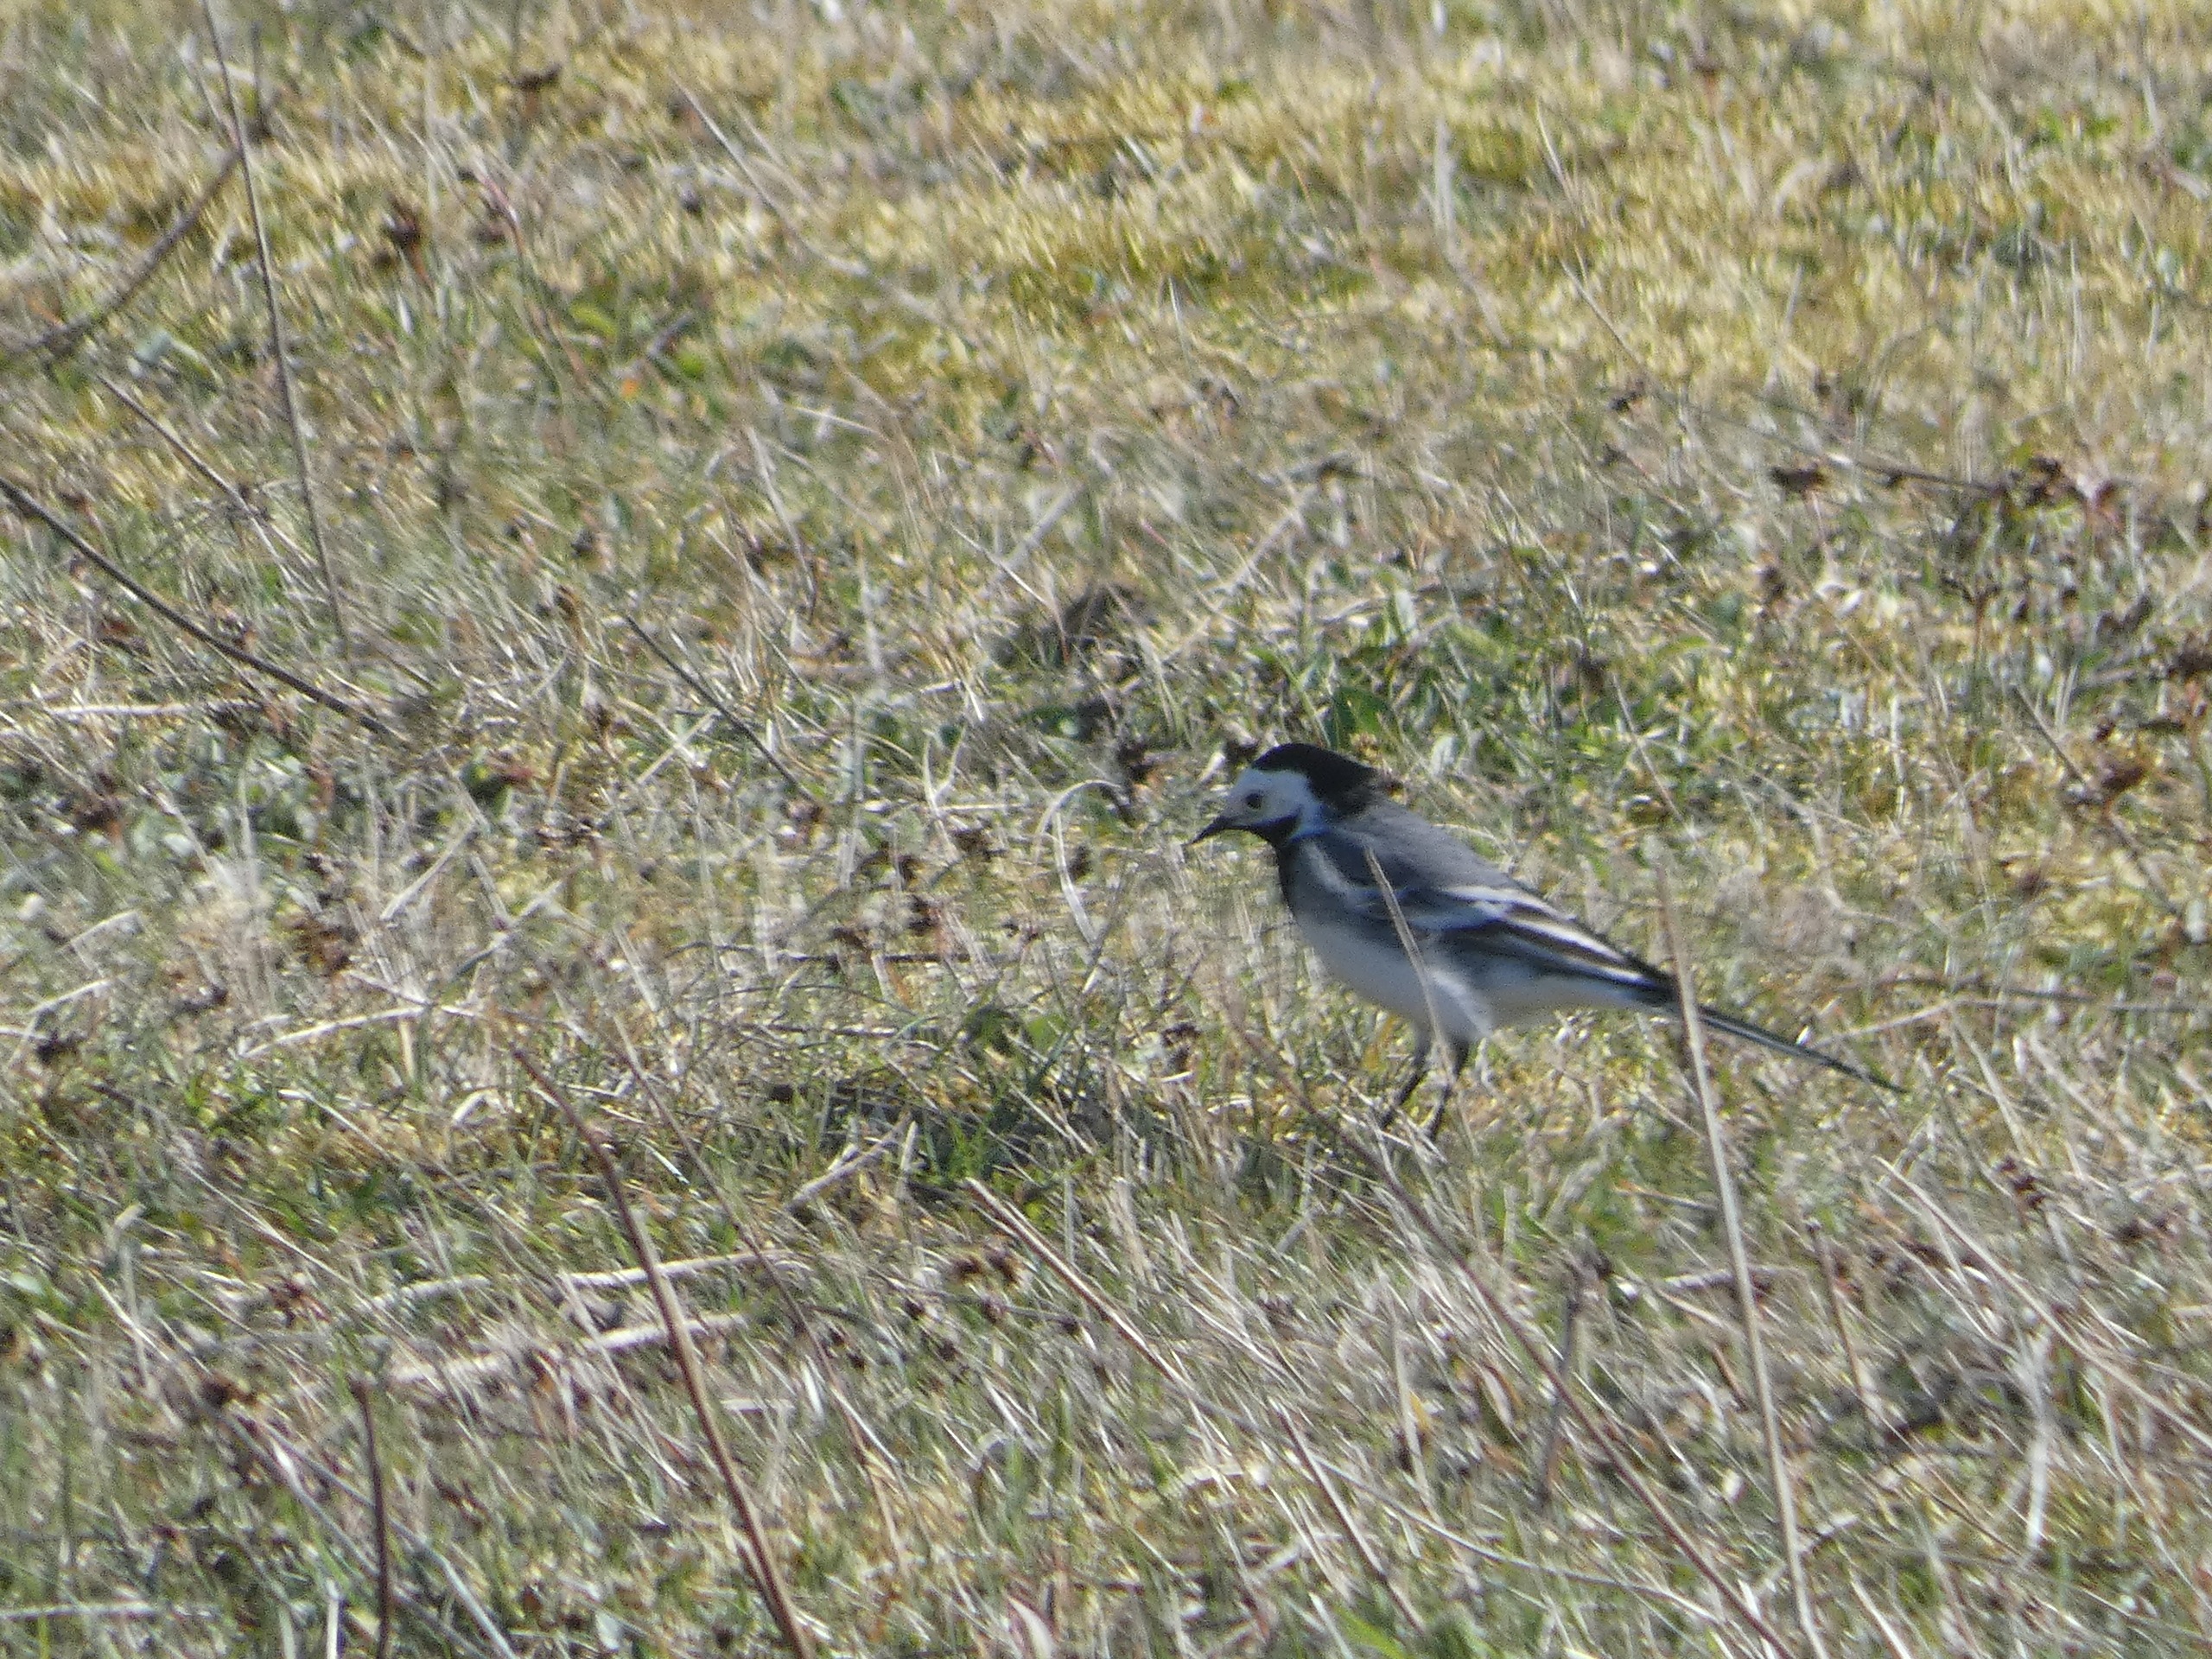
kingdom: Animalia
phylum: Chordata
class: Aves
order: Passeriformes
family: Motacillidae
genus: Motacilla
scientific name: Motacilla alba
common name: Hvid vipstjert
